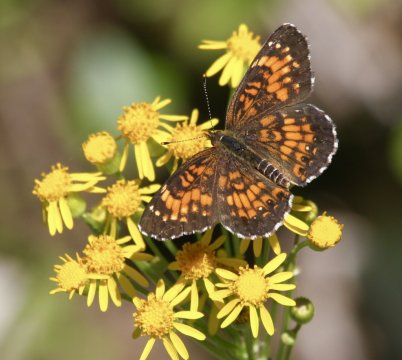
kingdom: Animalia
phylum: Arthropoda
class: Insecta
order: Lepidoptera
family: Nymphalidae
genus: Chlosyne
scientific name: Chlosyne harrisii
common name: Harris's Checkerspot
